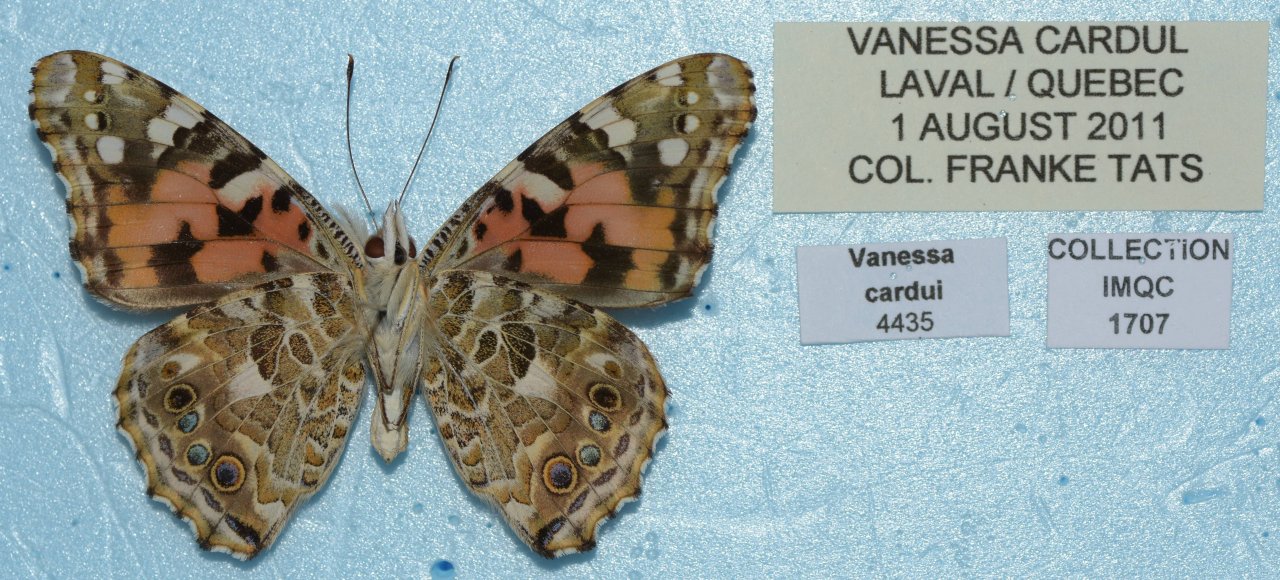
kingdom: Animalia
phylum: Arthropoda
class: Insecta
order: Lepidoptera
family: Nymphalidae
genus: Vanessa
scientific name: Vanessa cardui
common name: Painted Lady
